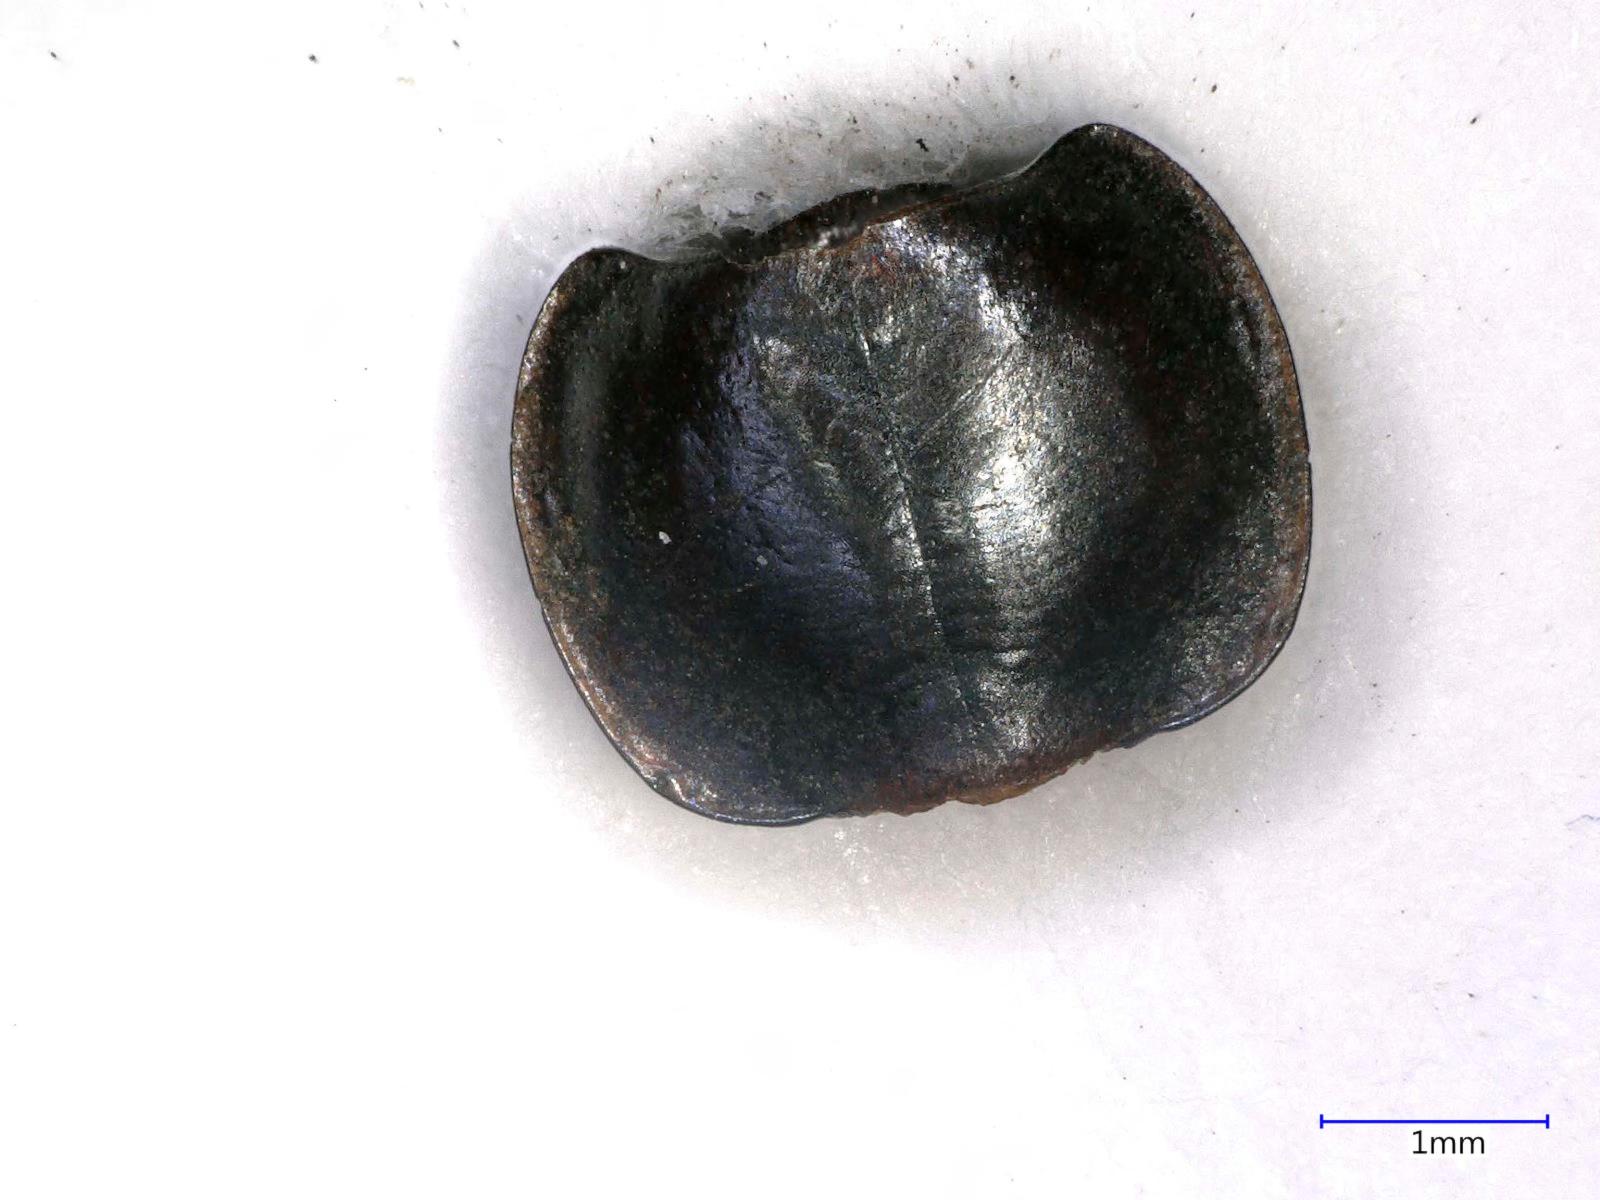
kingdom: Animalia
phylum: Arthropoda
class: Insecta
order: Coleoptera
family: Carabidae
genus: Tanystoma
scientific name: Tanystoma maculicolle
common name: Tule beetle
